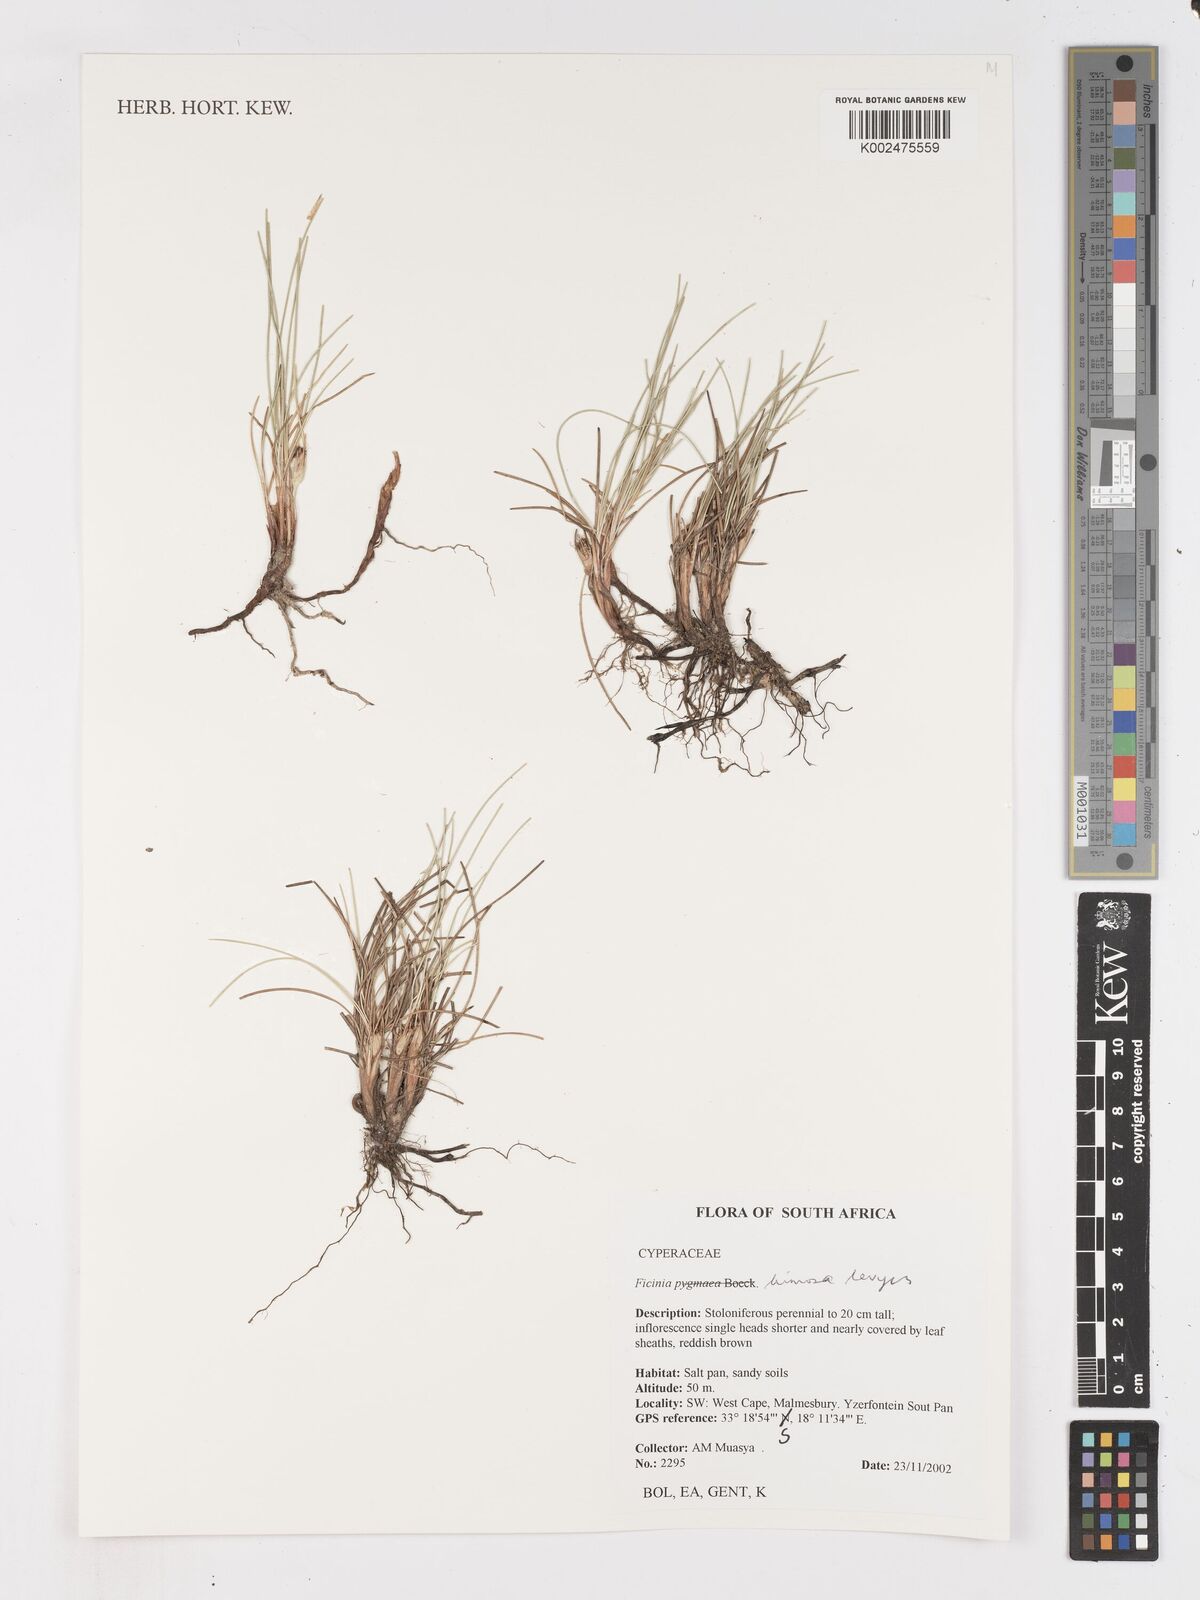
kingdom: Plantae
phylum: Tracheophyta
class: Liliopsida
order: Poales
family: Cyperaceae
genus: Ficinia
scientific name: Ficinia pygmaea
